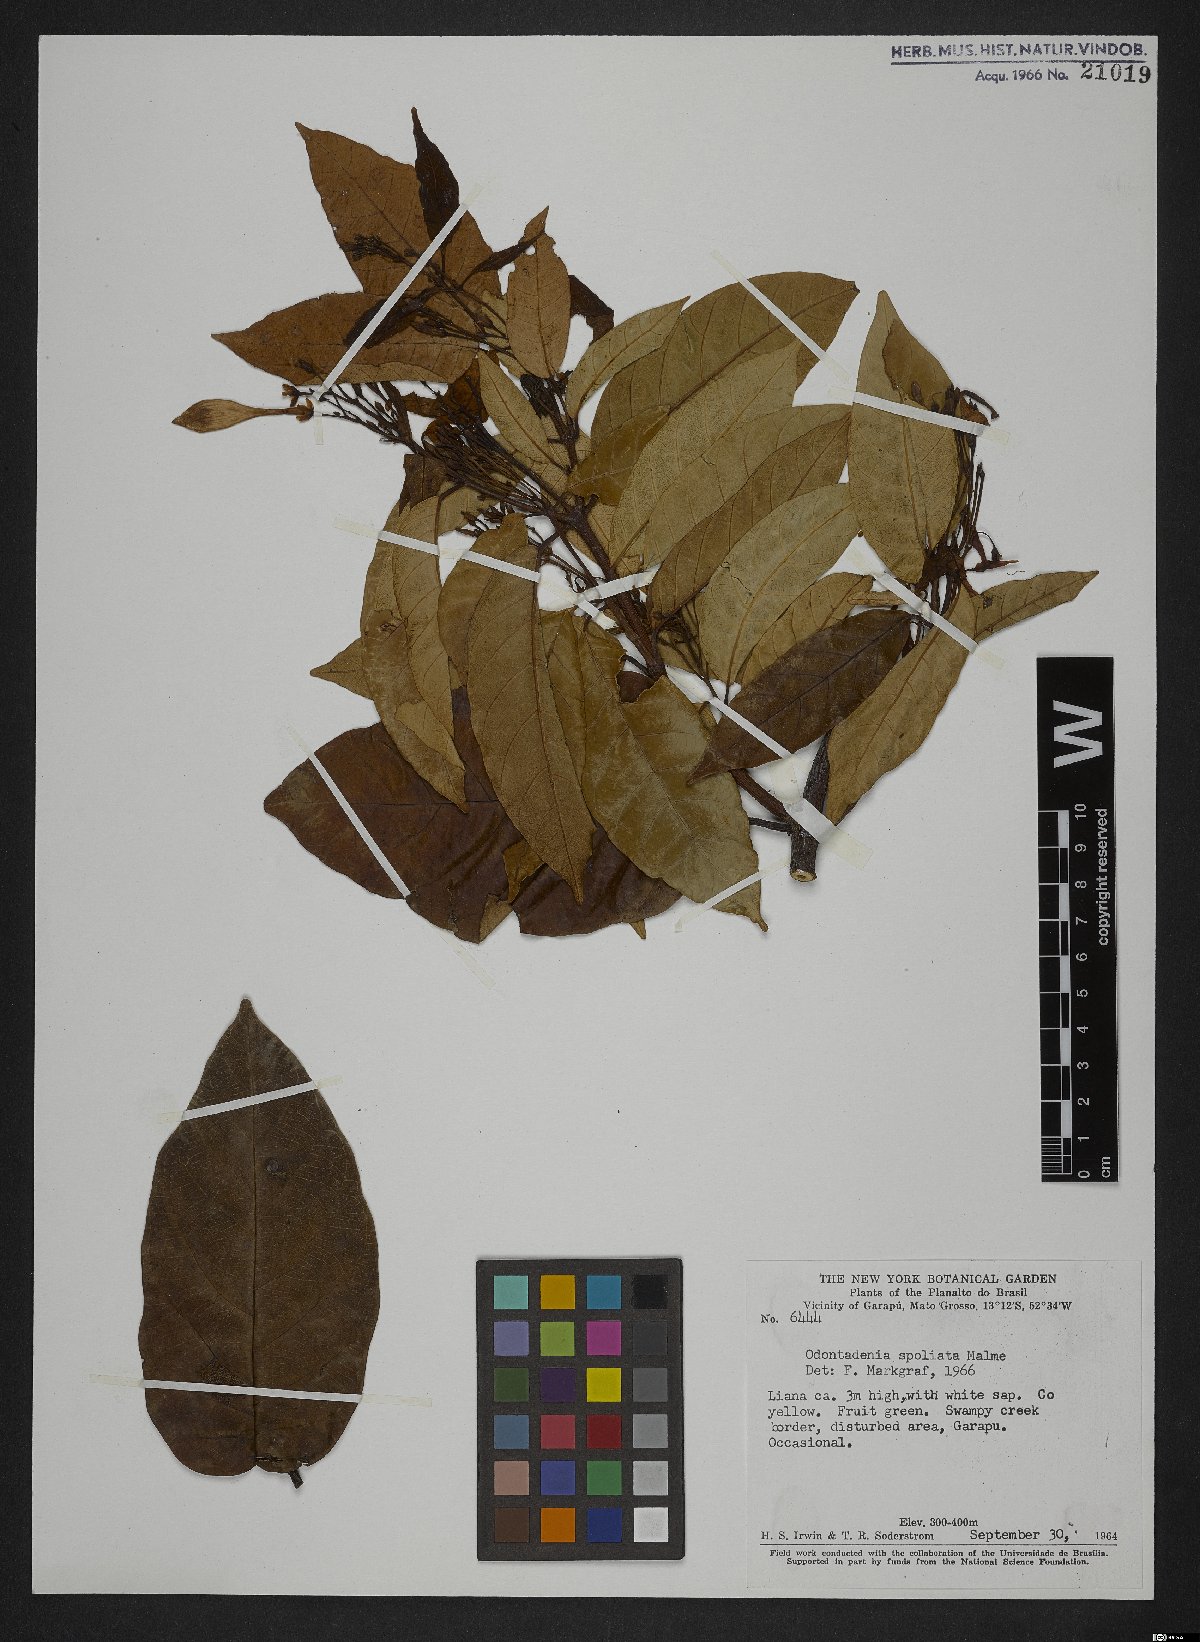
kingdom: Plantae
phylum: Tracheophyta
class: Magnoliopsida
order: Gentianales
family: Apocynaceae
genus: Odontadenia
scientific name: Odontadenia puncticulosa
